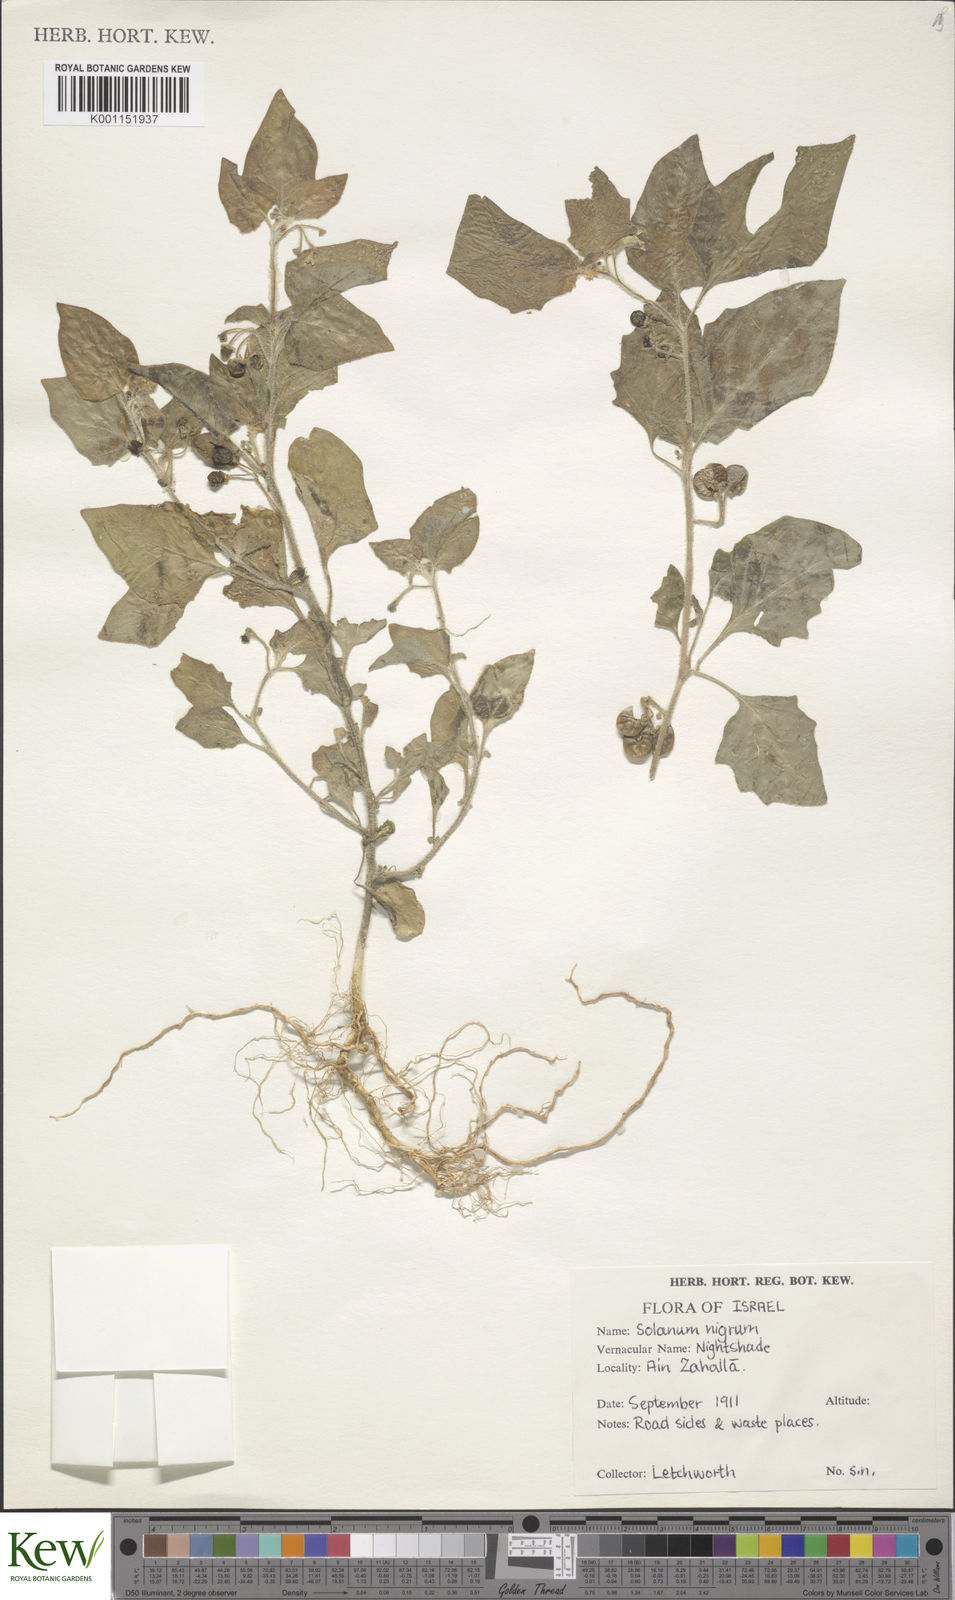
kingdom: Plantae
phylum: Tracheophyta
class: Magnoliopsida
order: Solanales
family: Solanaceae
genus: Solanum
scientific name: Solanum memphiticum
